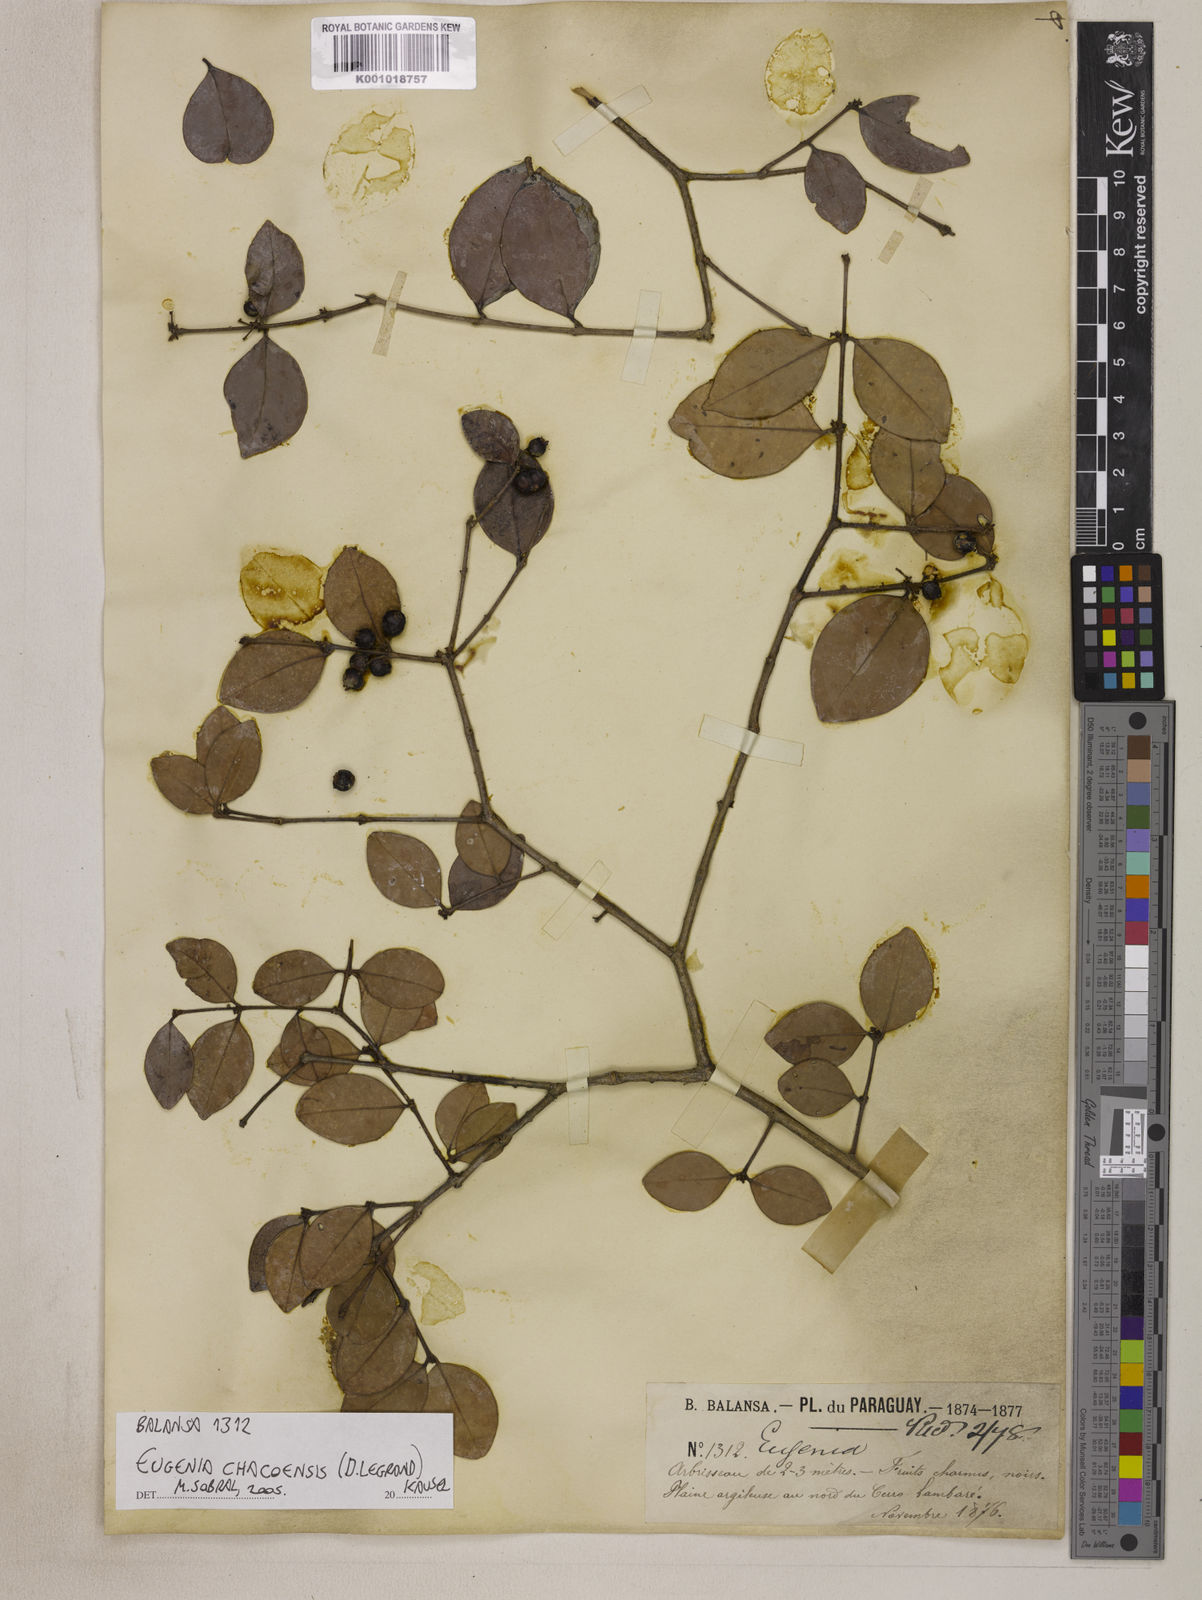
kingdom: Plantae
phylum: Tracheophyta
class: Magnoliopsida
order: Myrtales
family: Myrtaceae
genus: Eugenia
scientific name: Eugenia punicifolia
